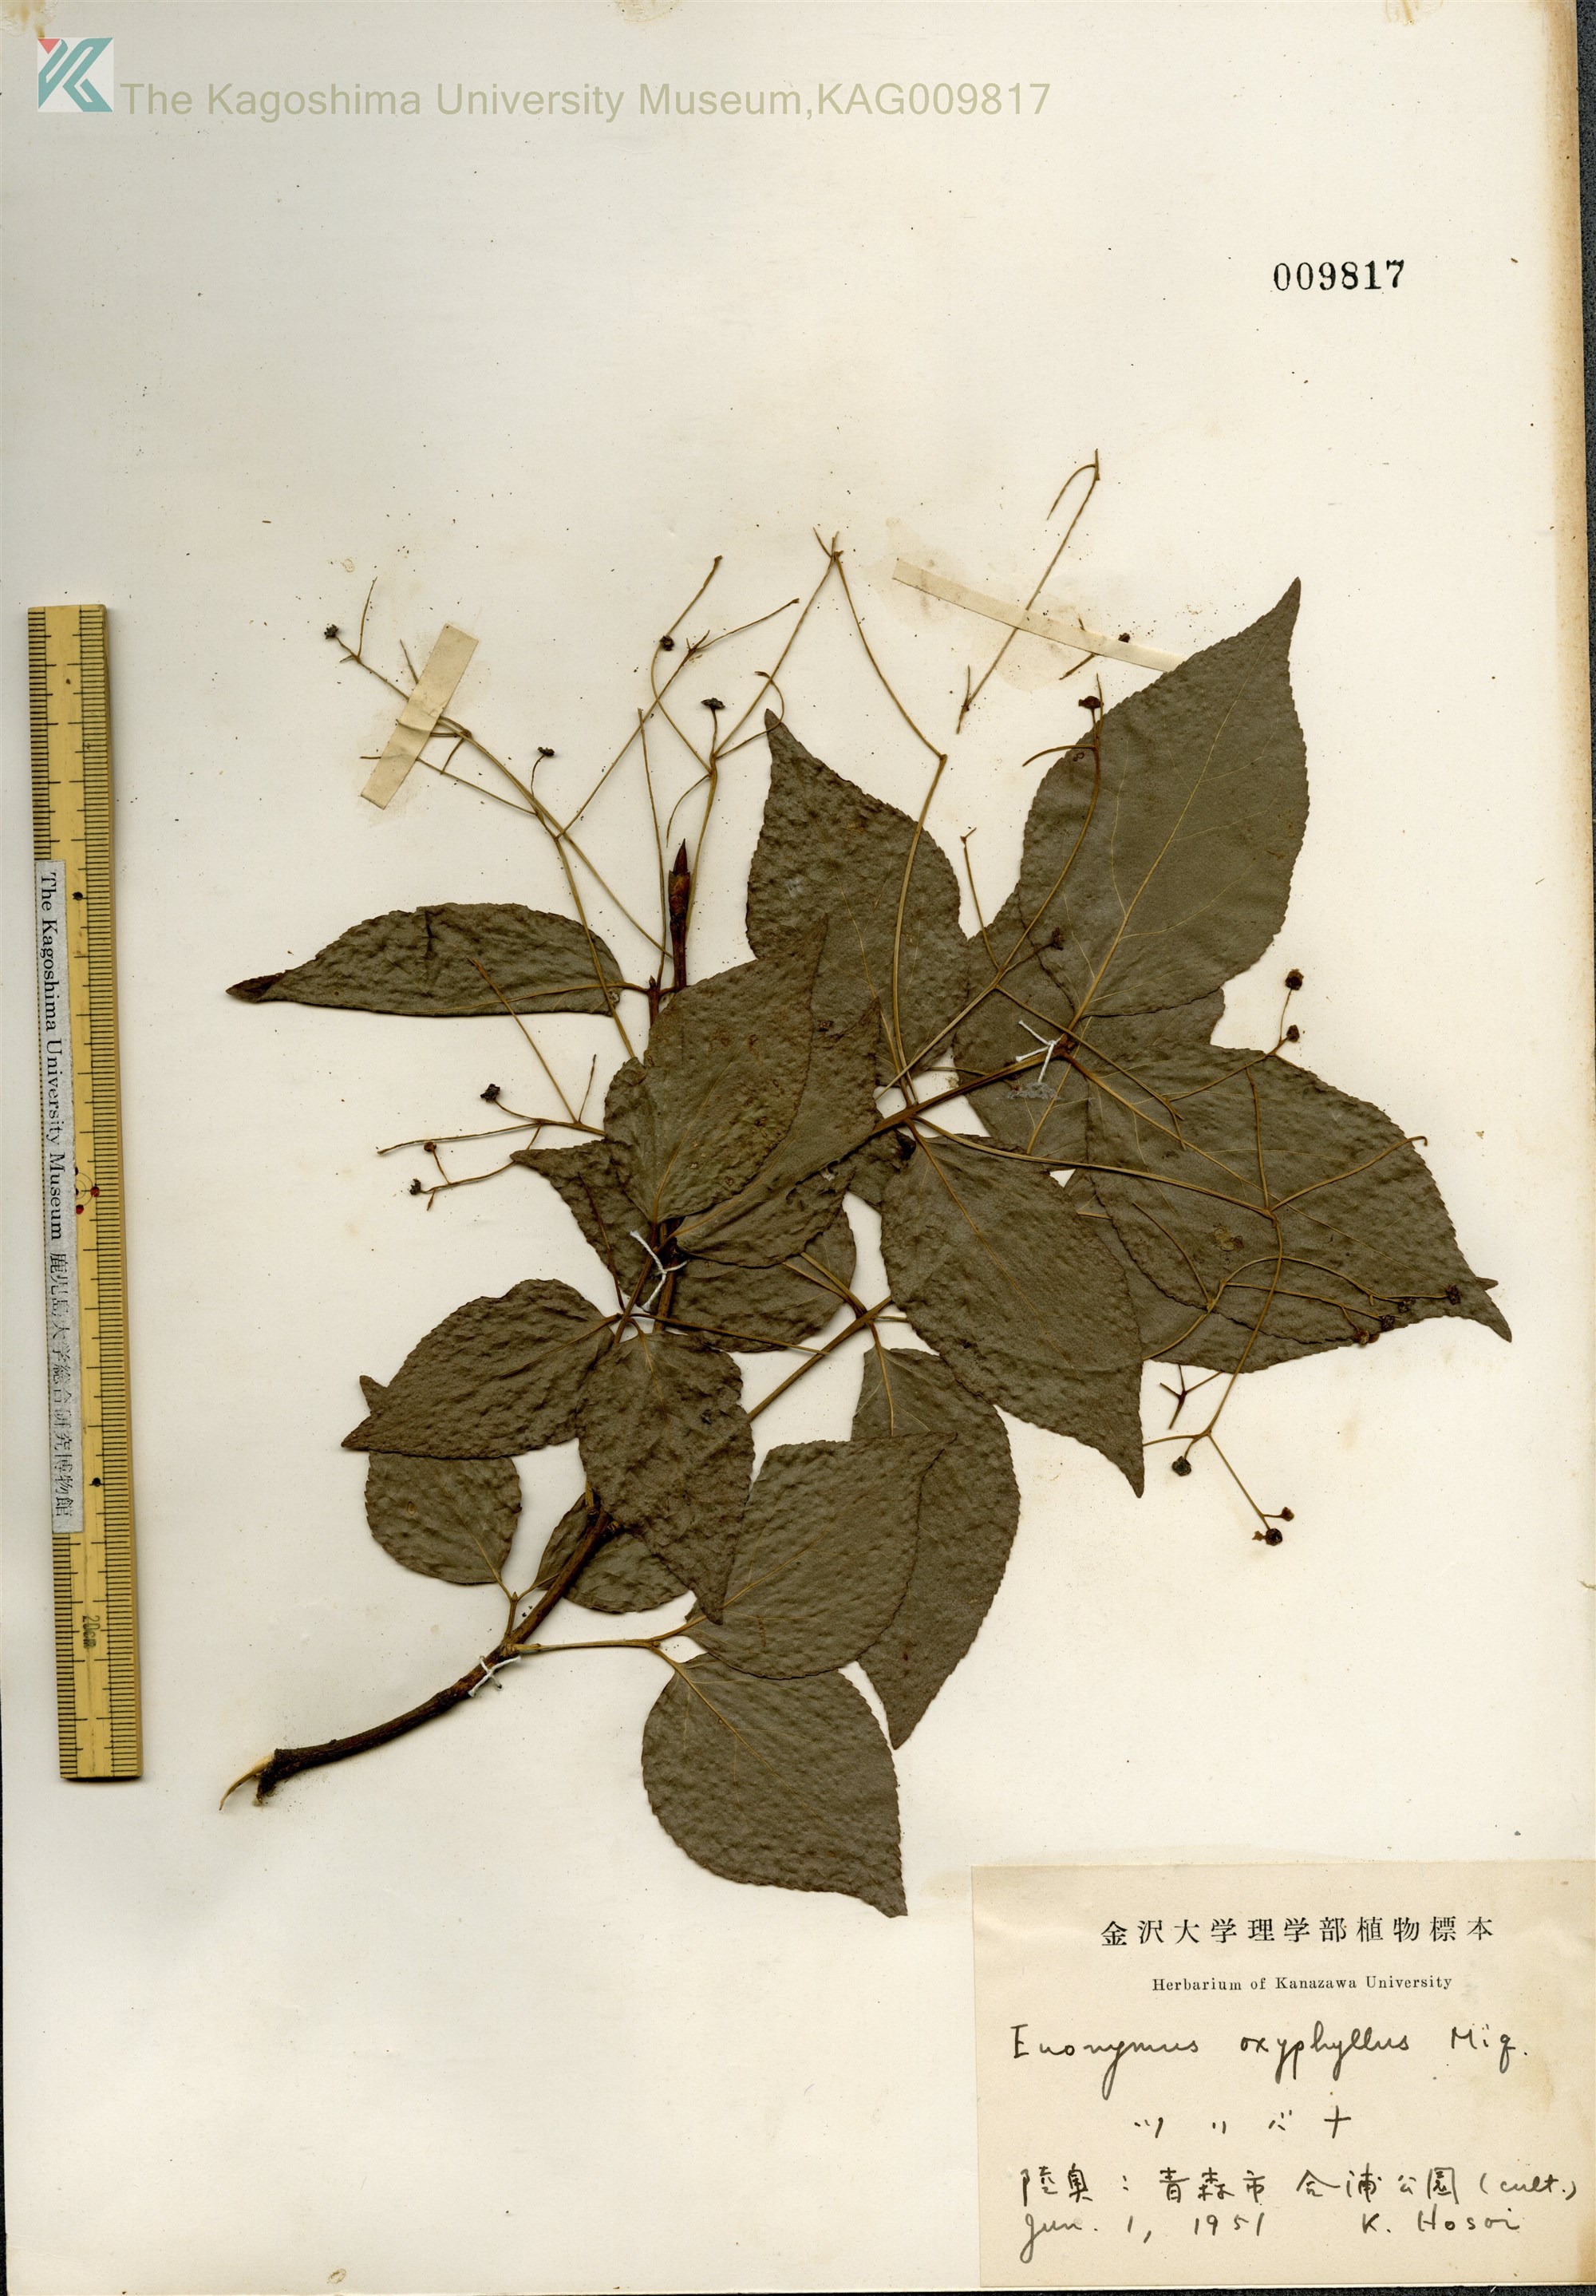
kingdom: Plantae
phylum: Tracheophyta
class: Magnoliopsida
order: Celastrales
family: Celastraceae
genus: Euonymus
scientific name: Euonymus oxyphyllus
